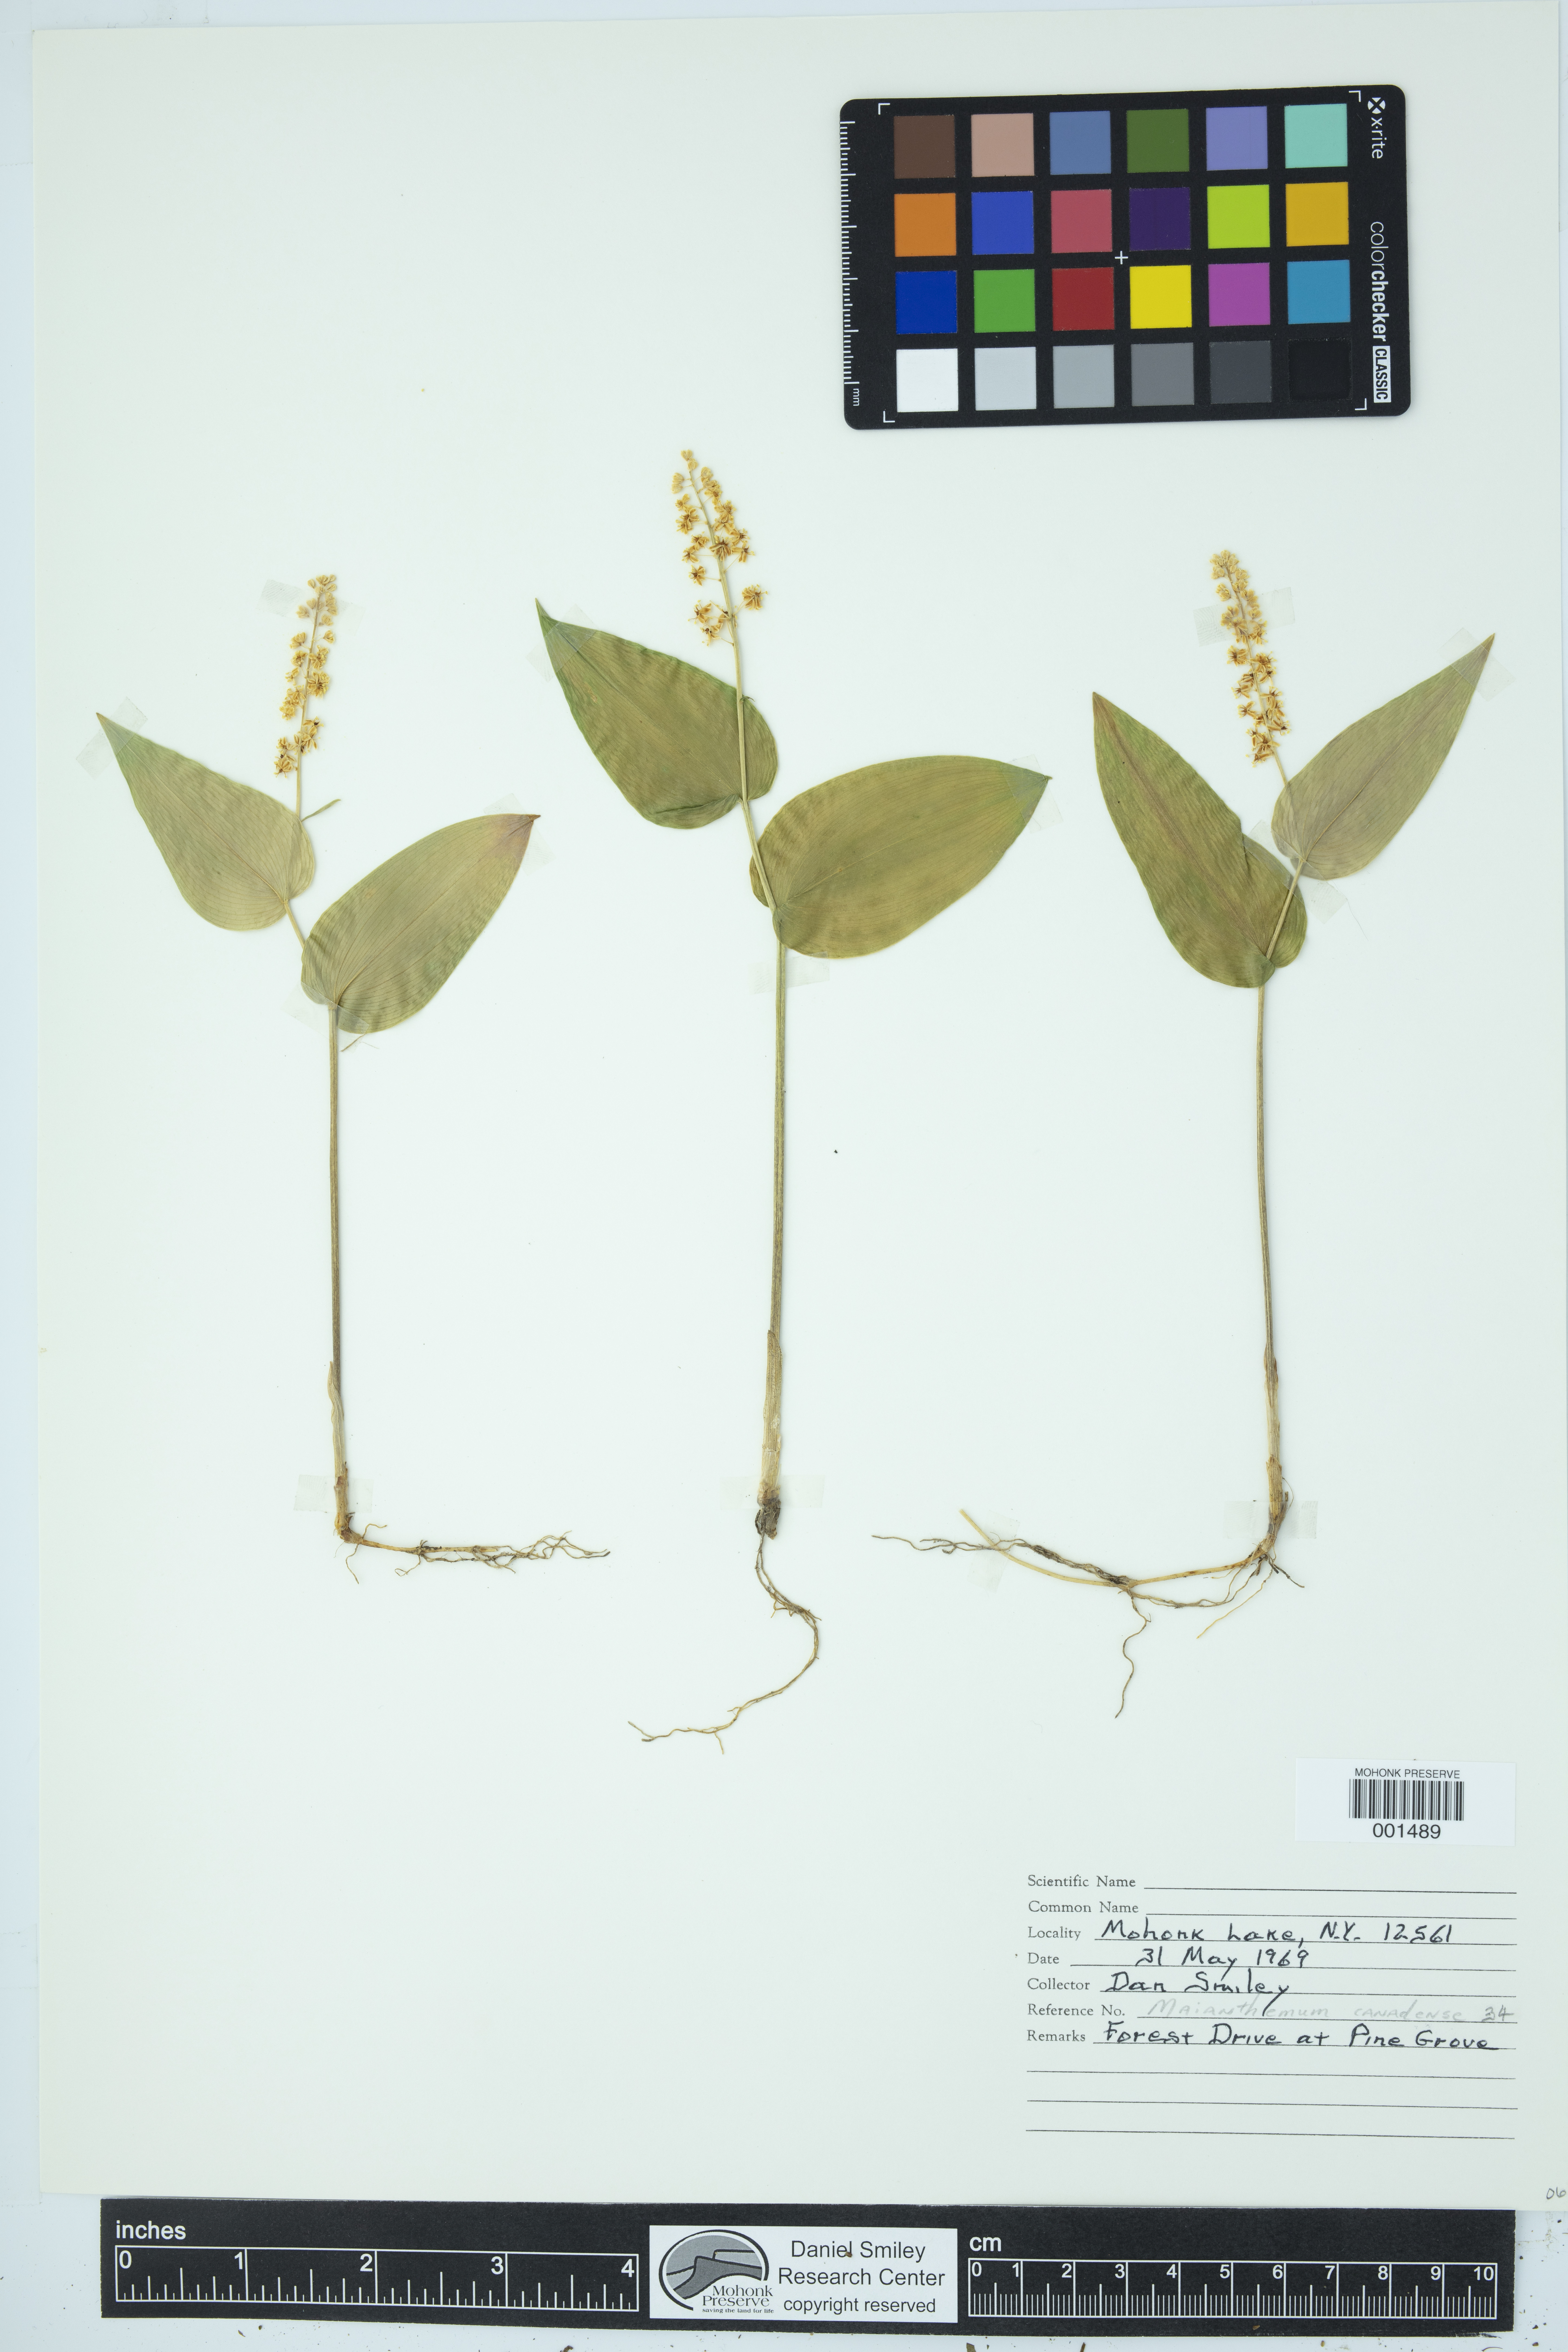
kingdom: Plantae
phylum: Tracheophyta
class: Liliopsida
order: Asparagales
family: Asparagaceae
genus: Maianthemum
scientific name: Maianthemum canadense
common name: False lily-of-the-valley
